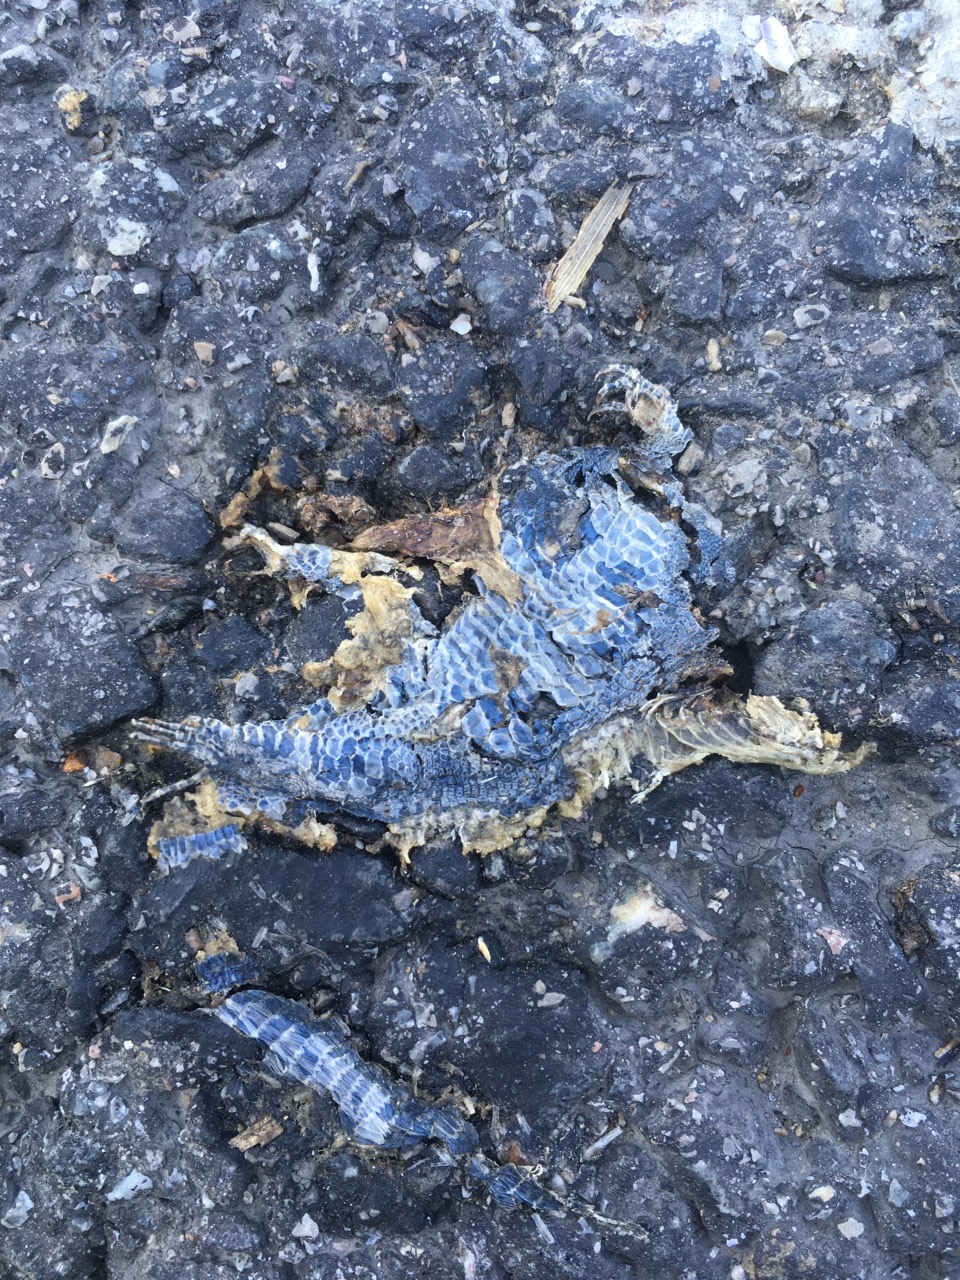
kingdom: Animalia
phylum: Chordata
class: Squamata
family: Lacertidae
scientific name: Lacertidae
